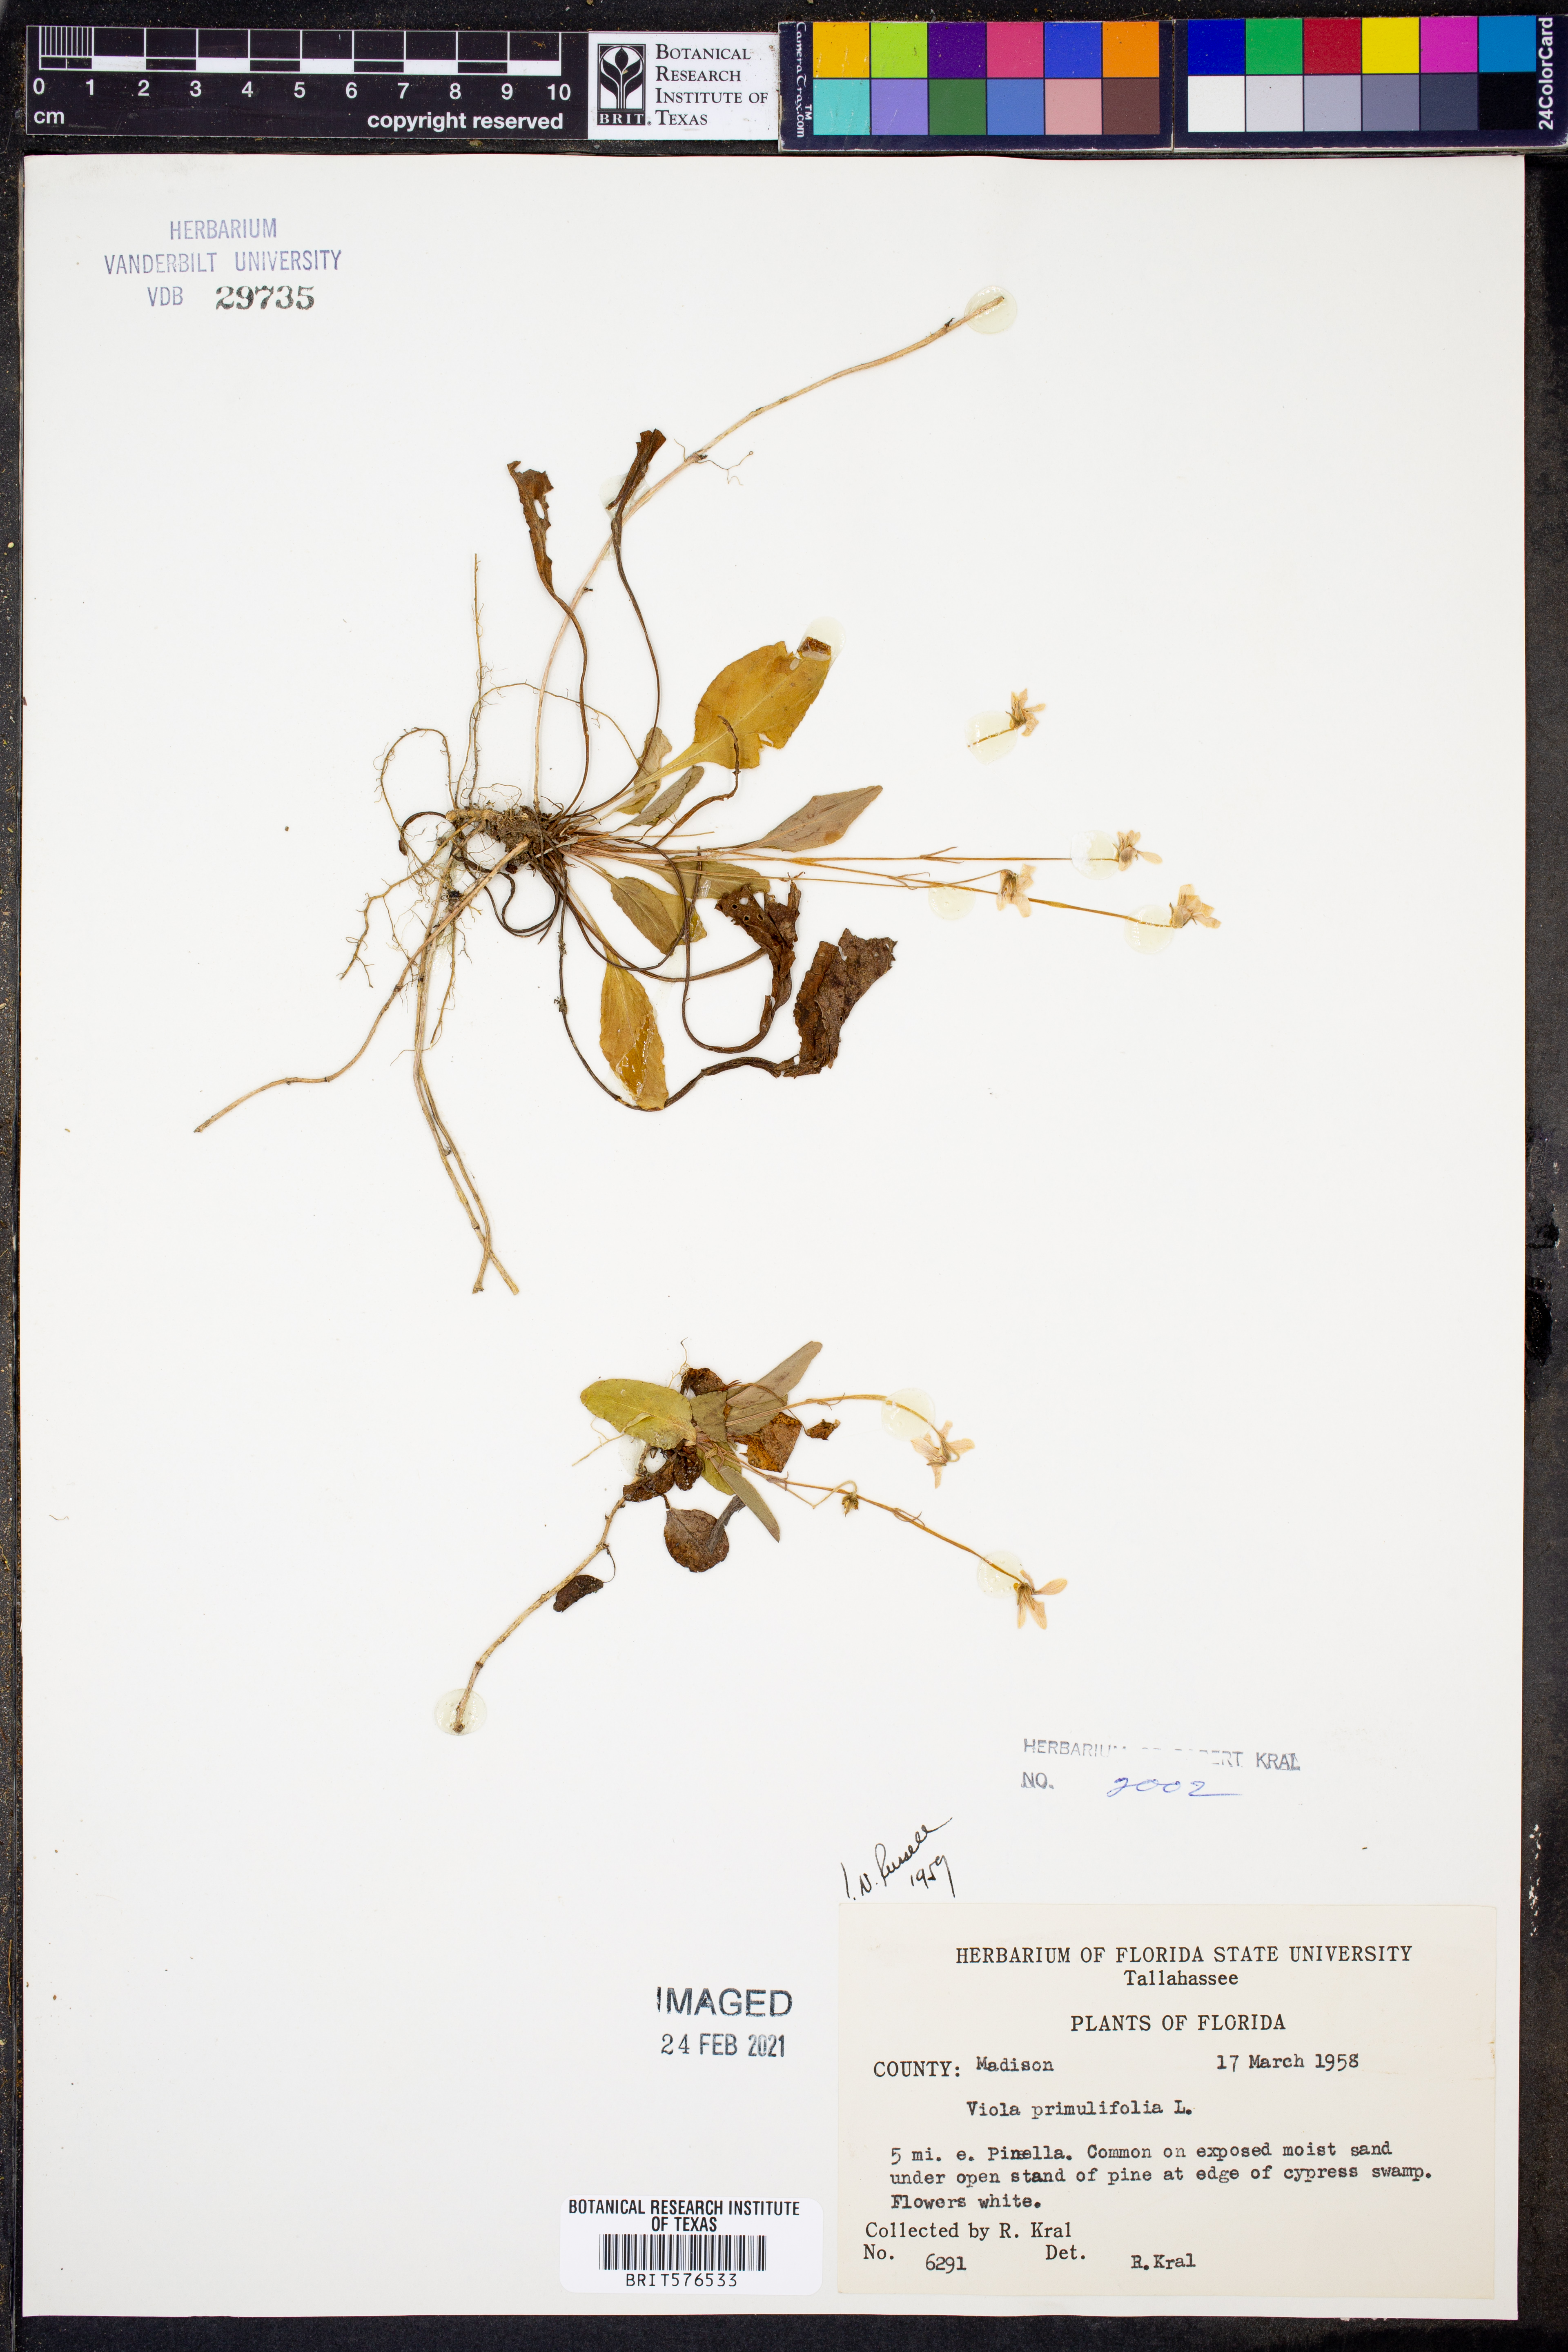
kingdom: Plantae
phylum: Tracheophyta
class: Magnoliopsida
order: Malpighiales
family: Violaceae
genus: Viola
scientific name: Viola primulifolia
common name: Primrose-leaf violet
